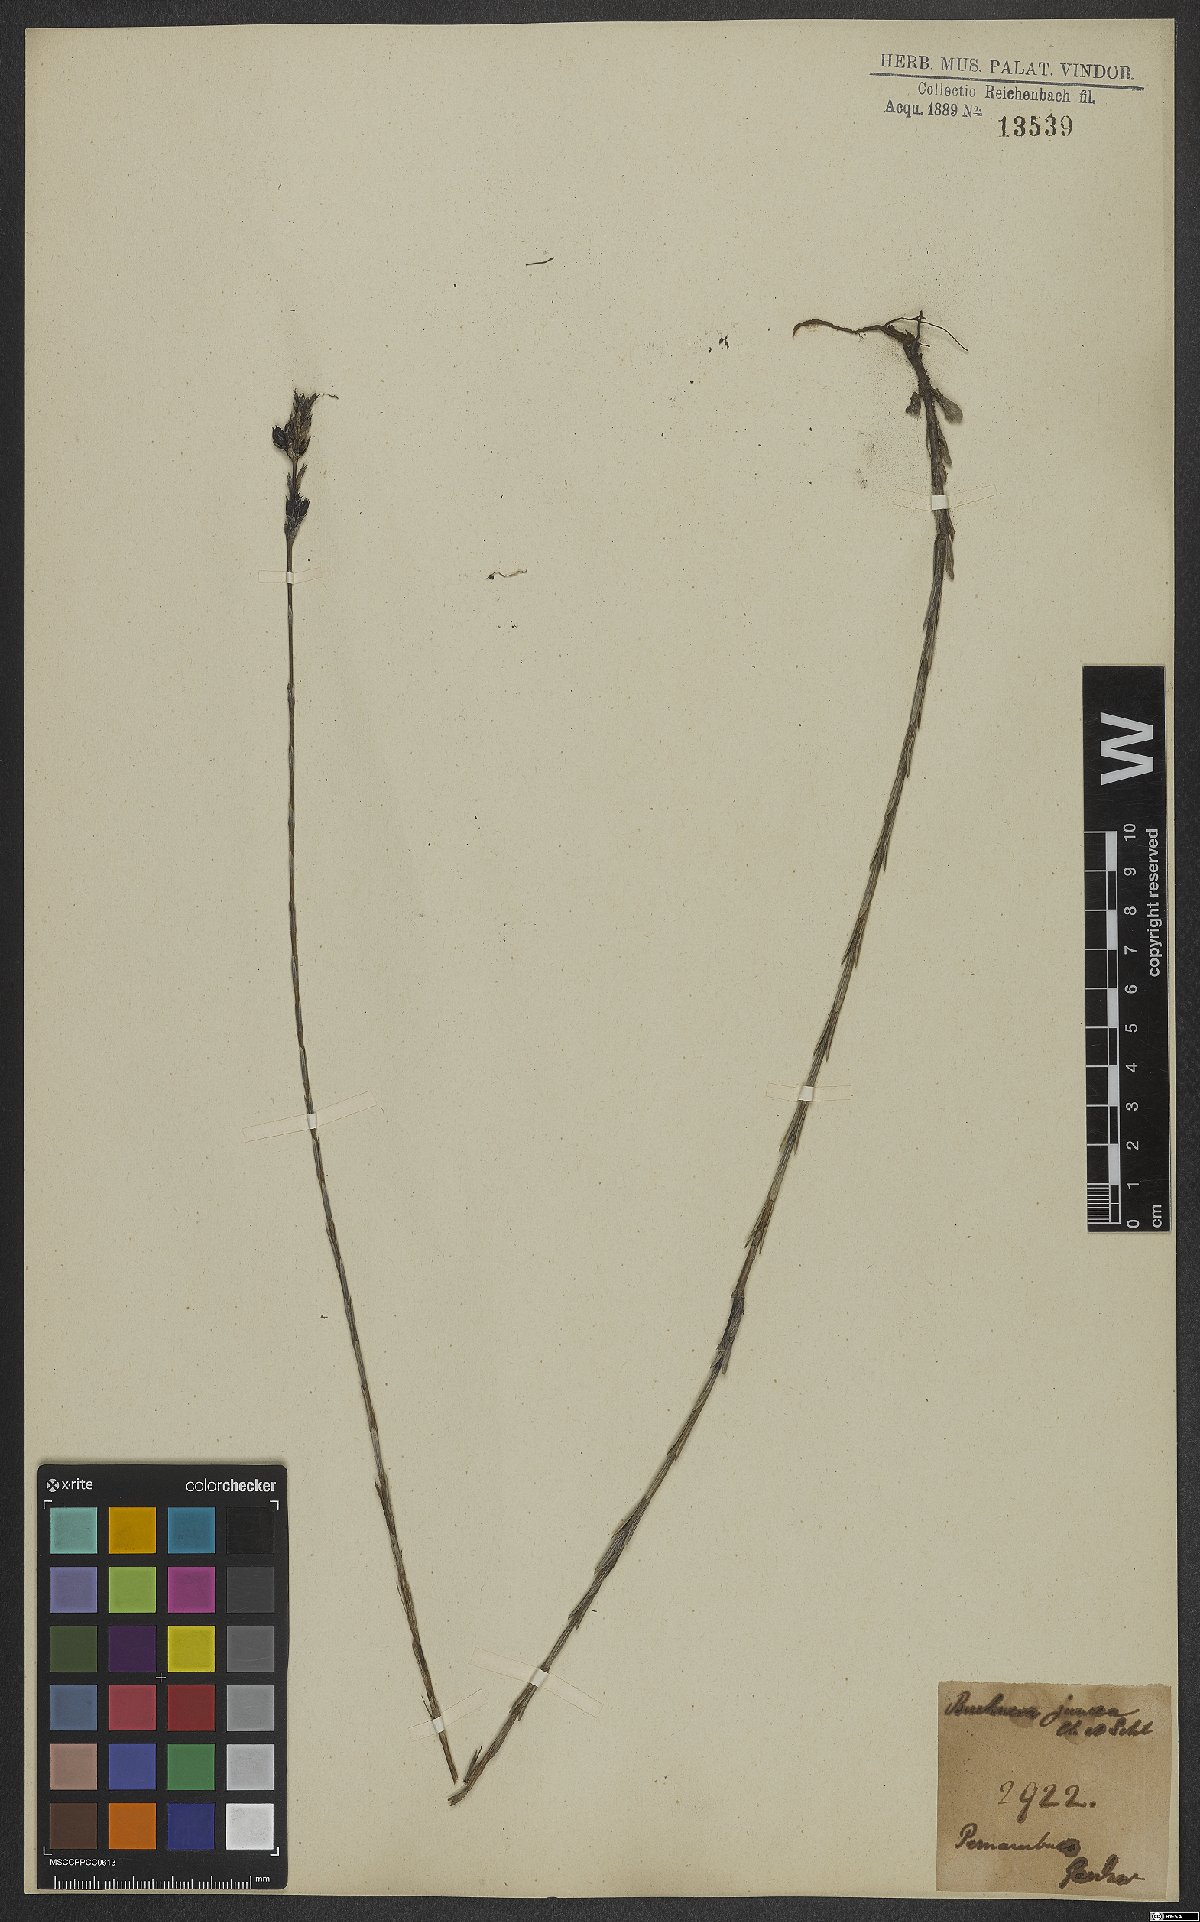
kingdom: Plantae
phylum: Tracheophyta
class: Magnoliopsida
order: Lamiales
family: Orobanchaceae
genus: Buchnera
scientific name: Buchnera juncea
